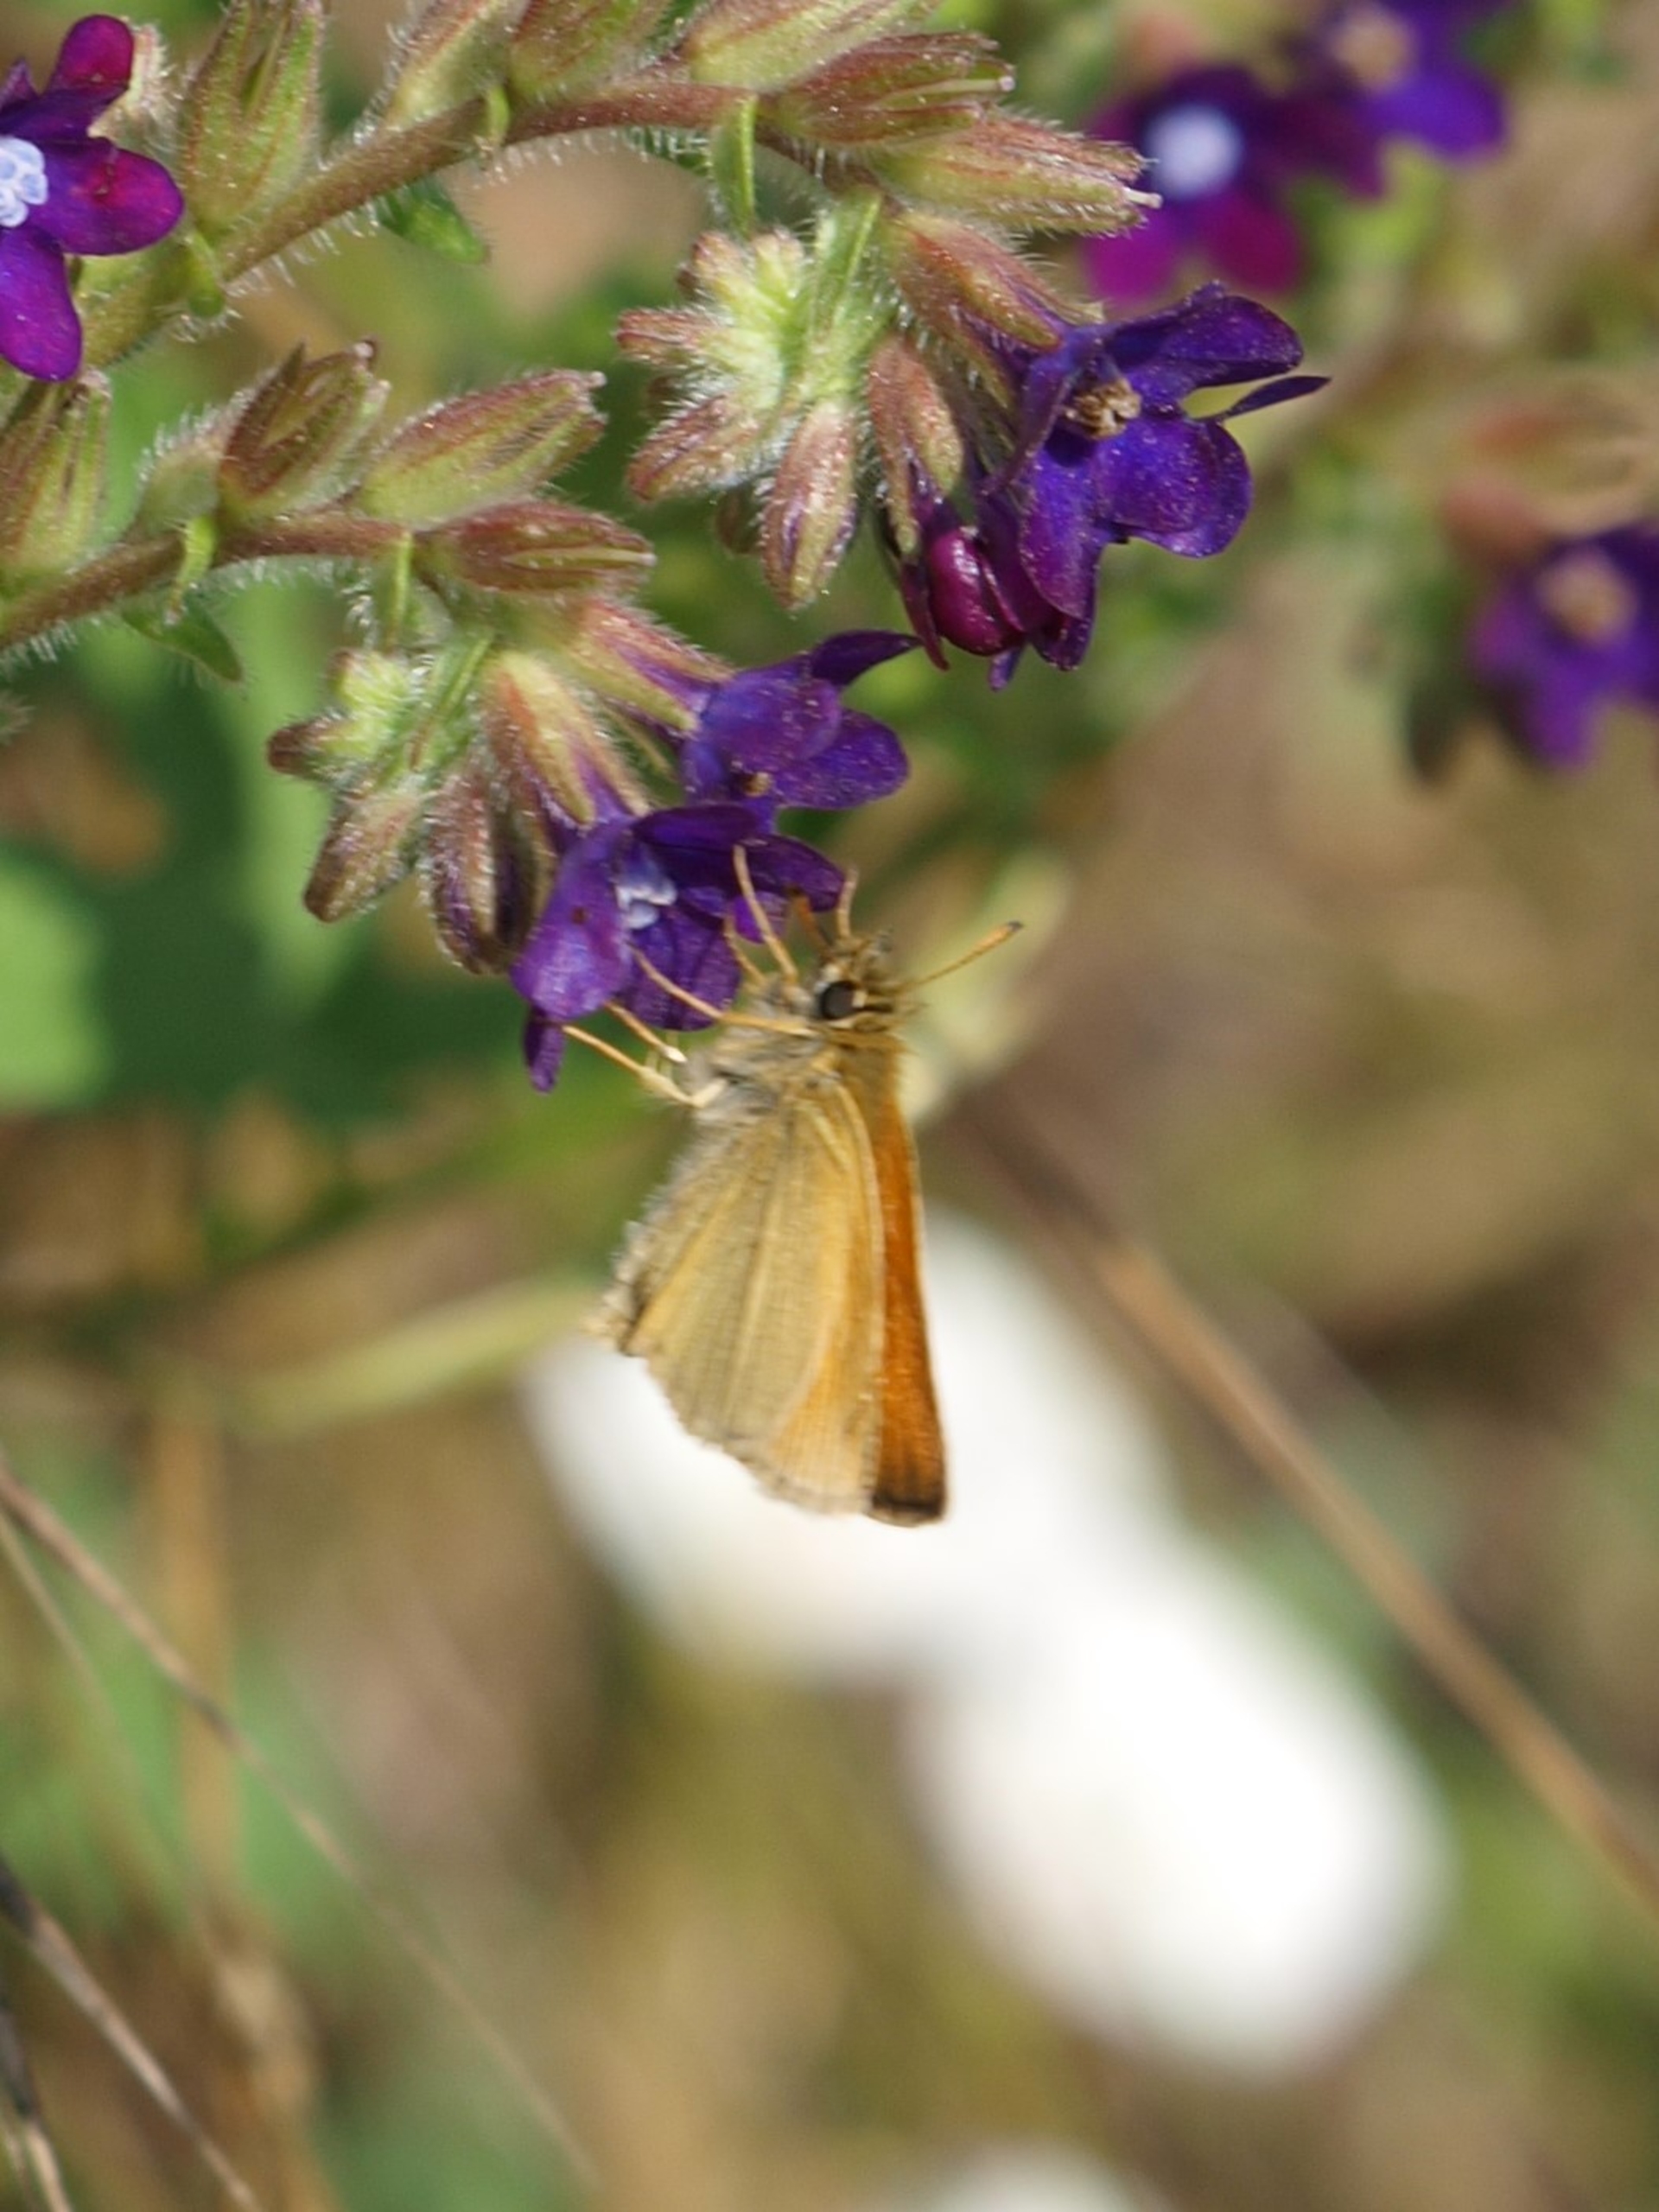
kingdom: Animalia
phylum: Arthropoda
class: Insecta
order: Lepidoptera
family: Hesperiidae
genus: Thymelicus
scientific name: Thymelicus lineola
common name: Stregbredpande
